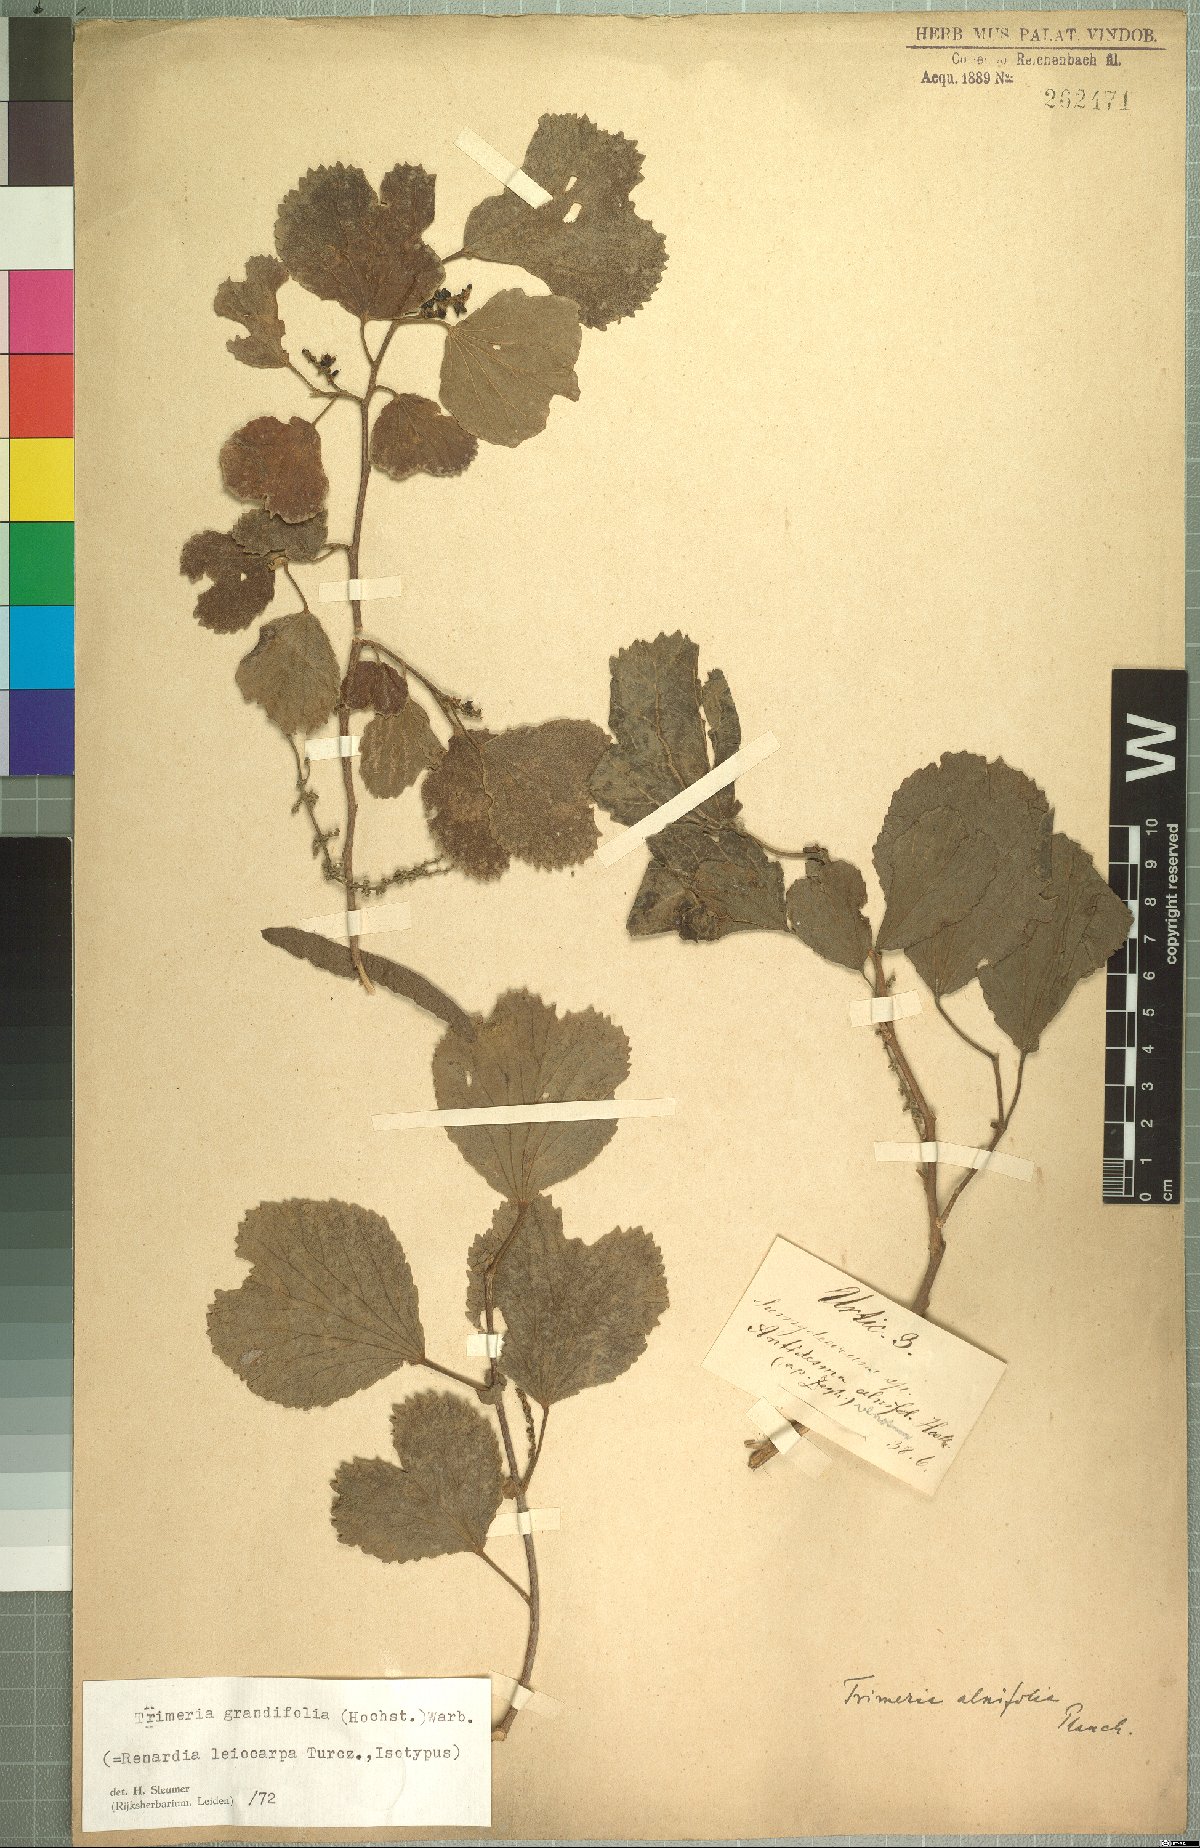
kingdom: Plantae
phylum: Tracheophyta
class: Magnoliopsida
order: Malpighiales
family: Salicaceae
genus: Trimeria
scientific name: Trimeria grandifolia
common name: Wild mulberry
